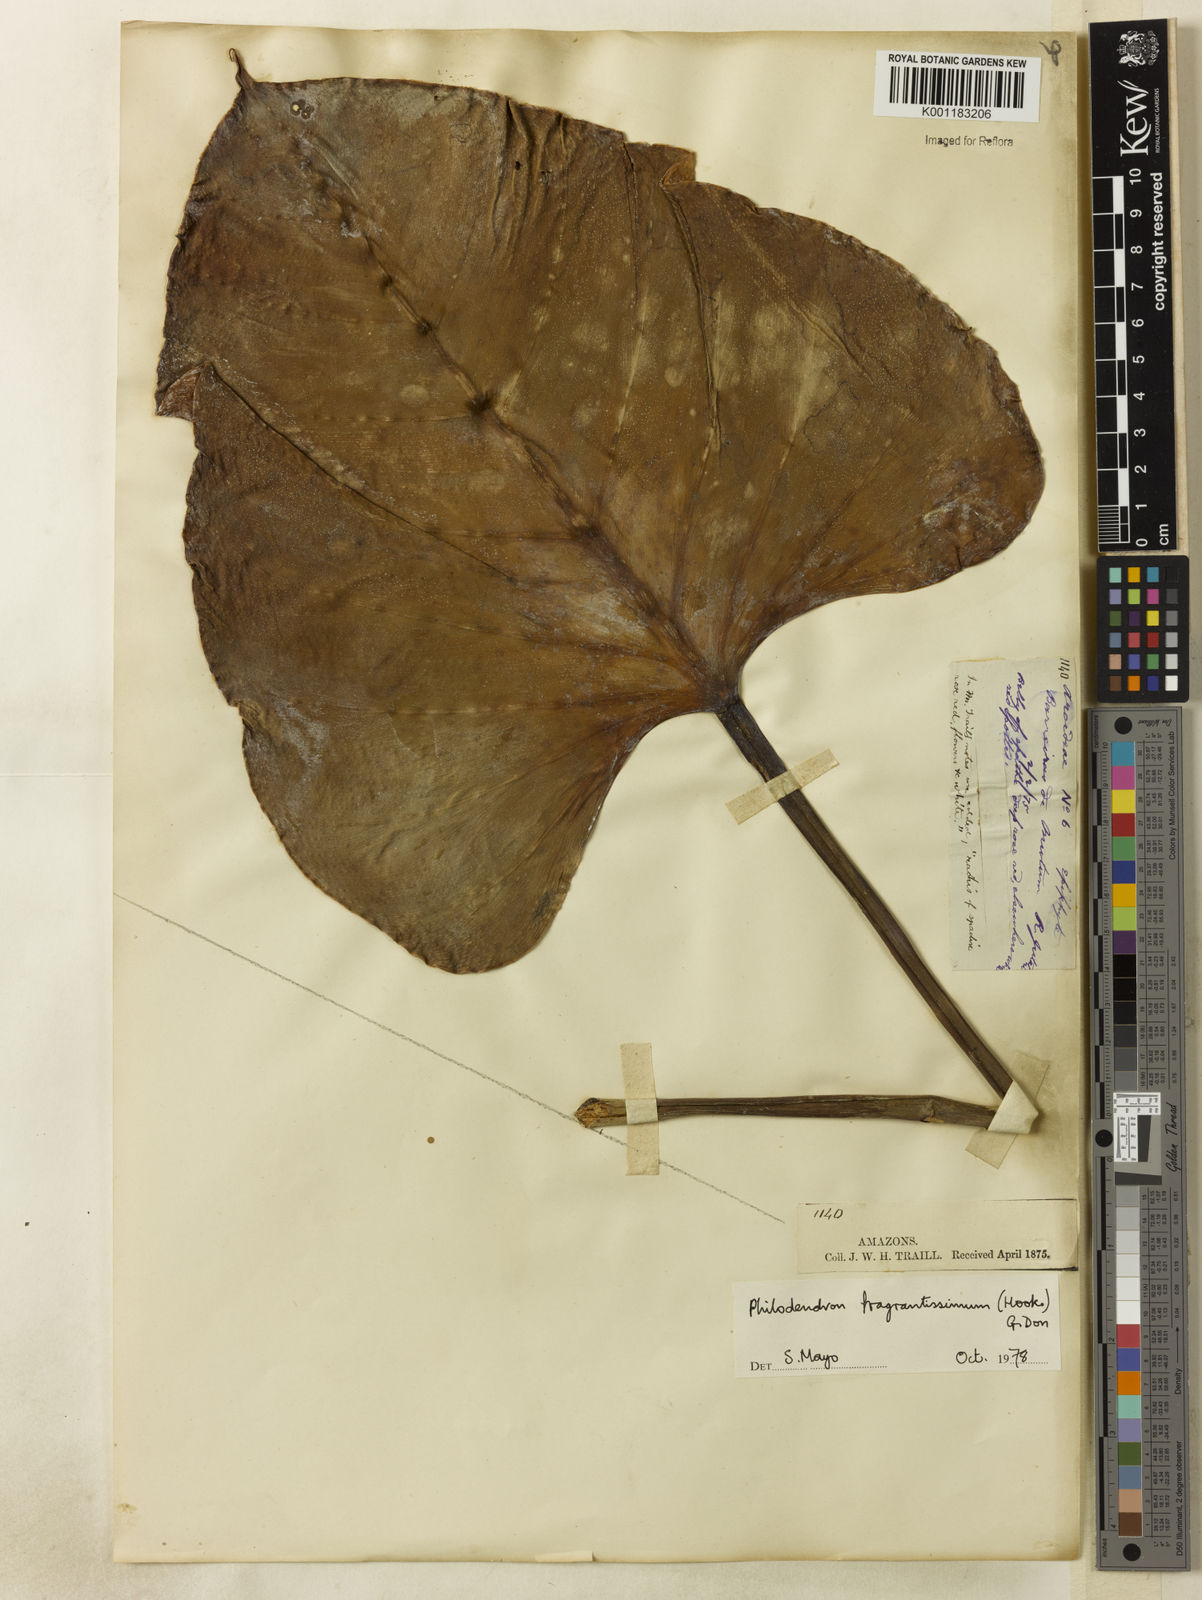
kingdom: Plantae
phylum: Tracheophyta
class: Liliopsida
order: Alismatales
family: Araceae
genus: Philodendron
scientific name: Philodendron
